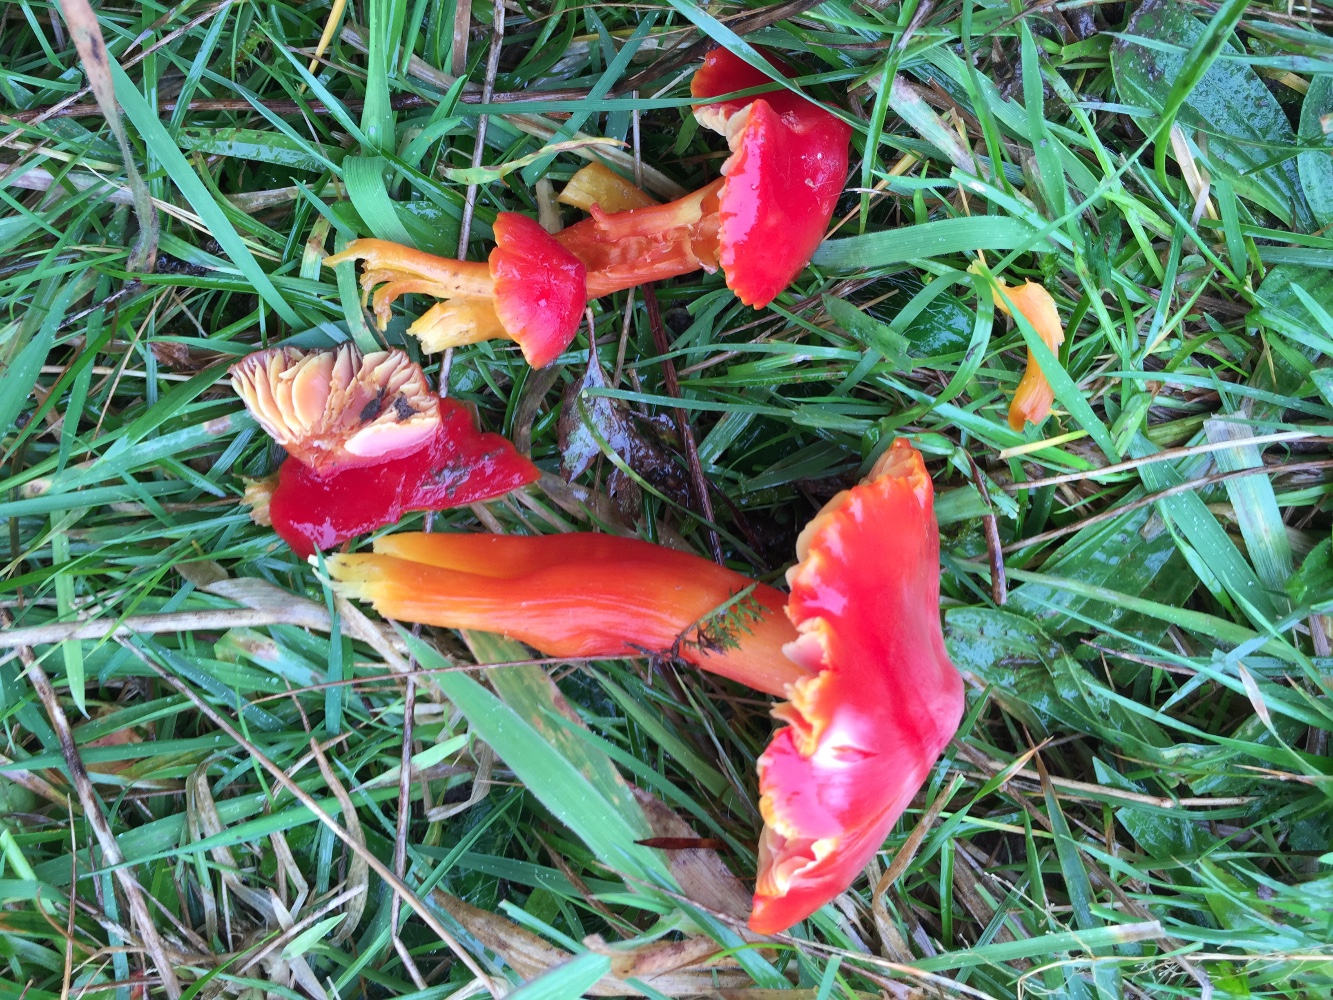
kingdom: Fungi
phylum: Basidiomycota
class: Agaricomycetes
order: Agaricales
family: Hygrophoraceae
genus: Hygrocybe
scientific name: Hygrocybe splendidissima
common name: knaldrød vokshat
